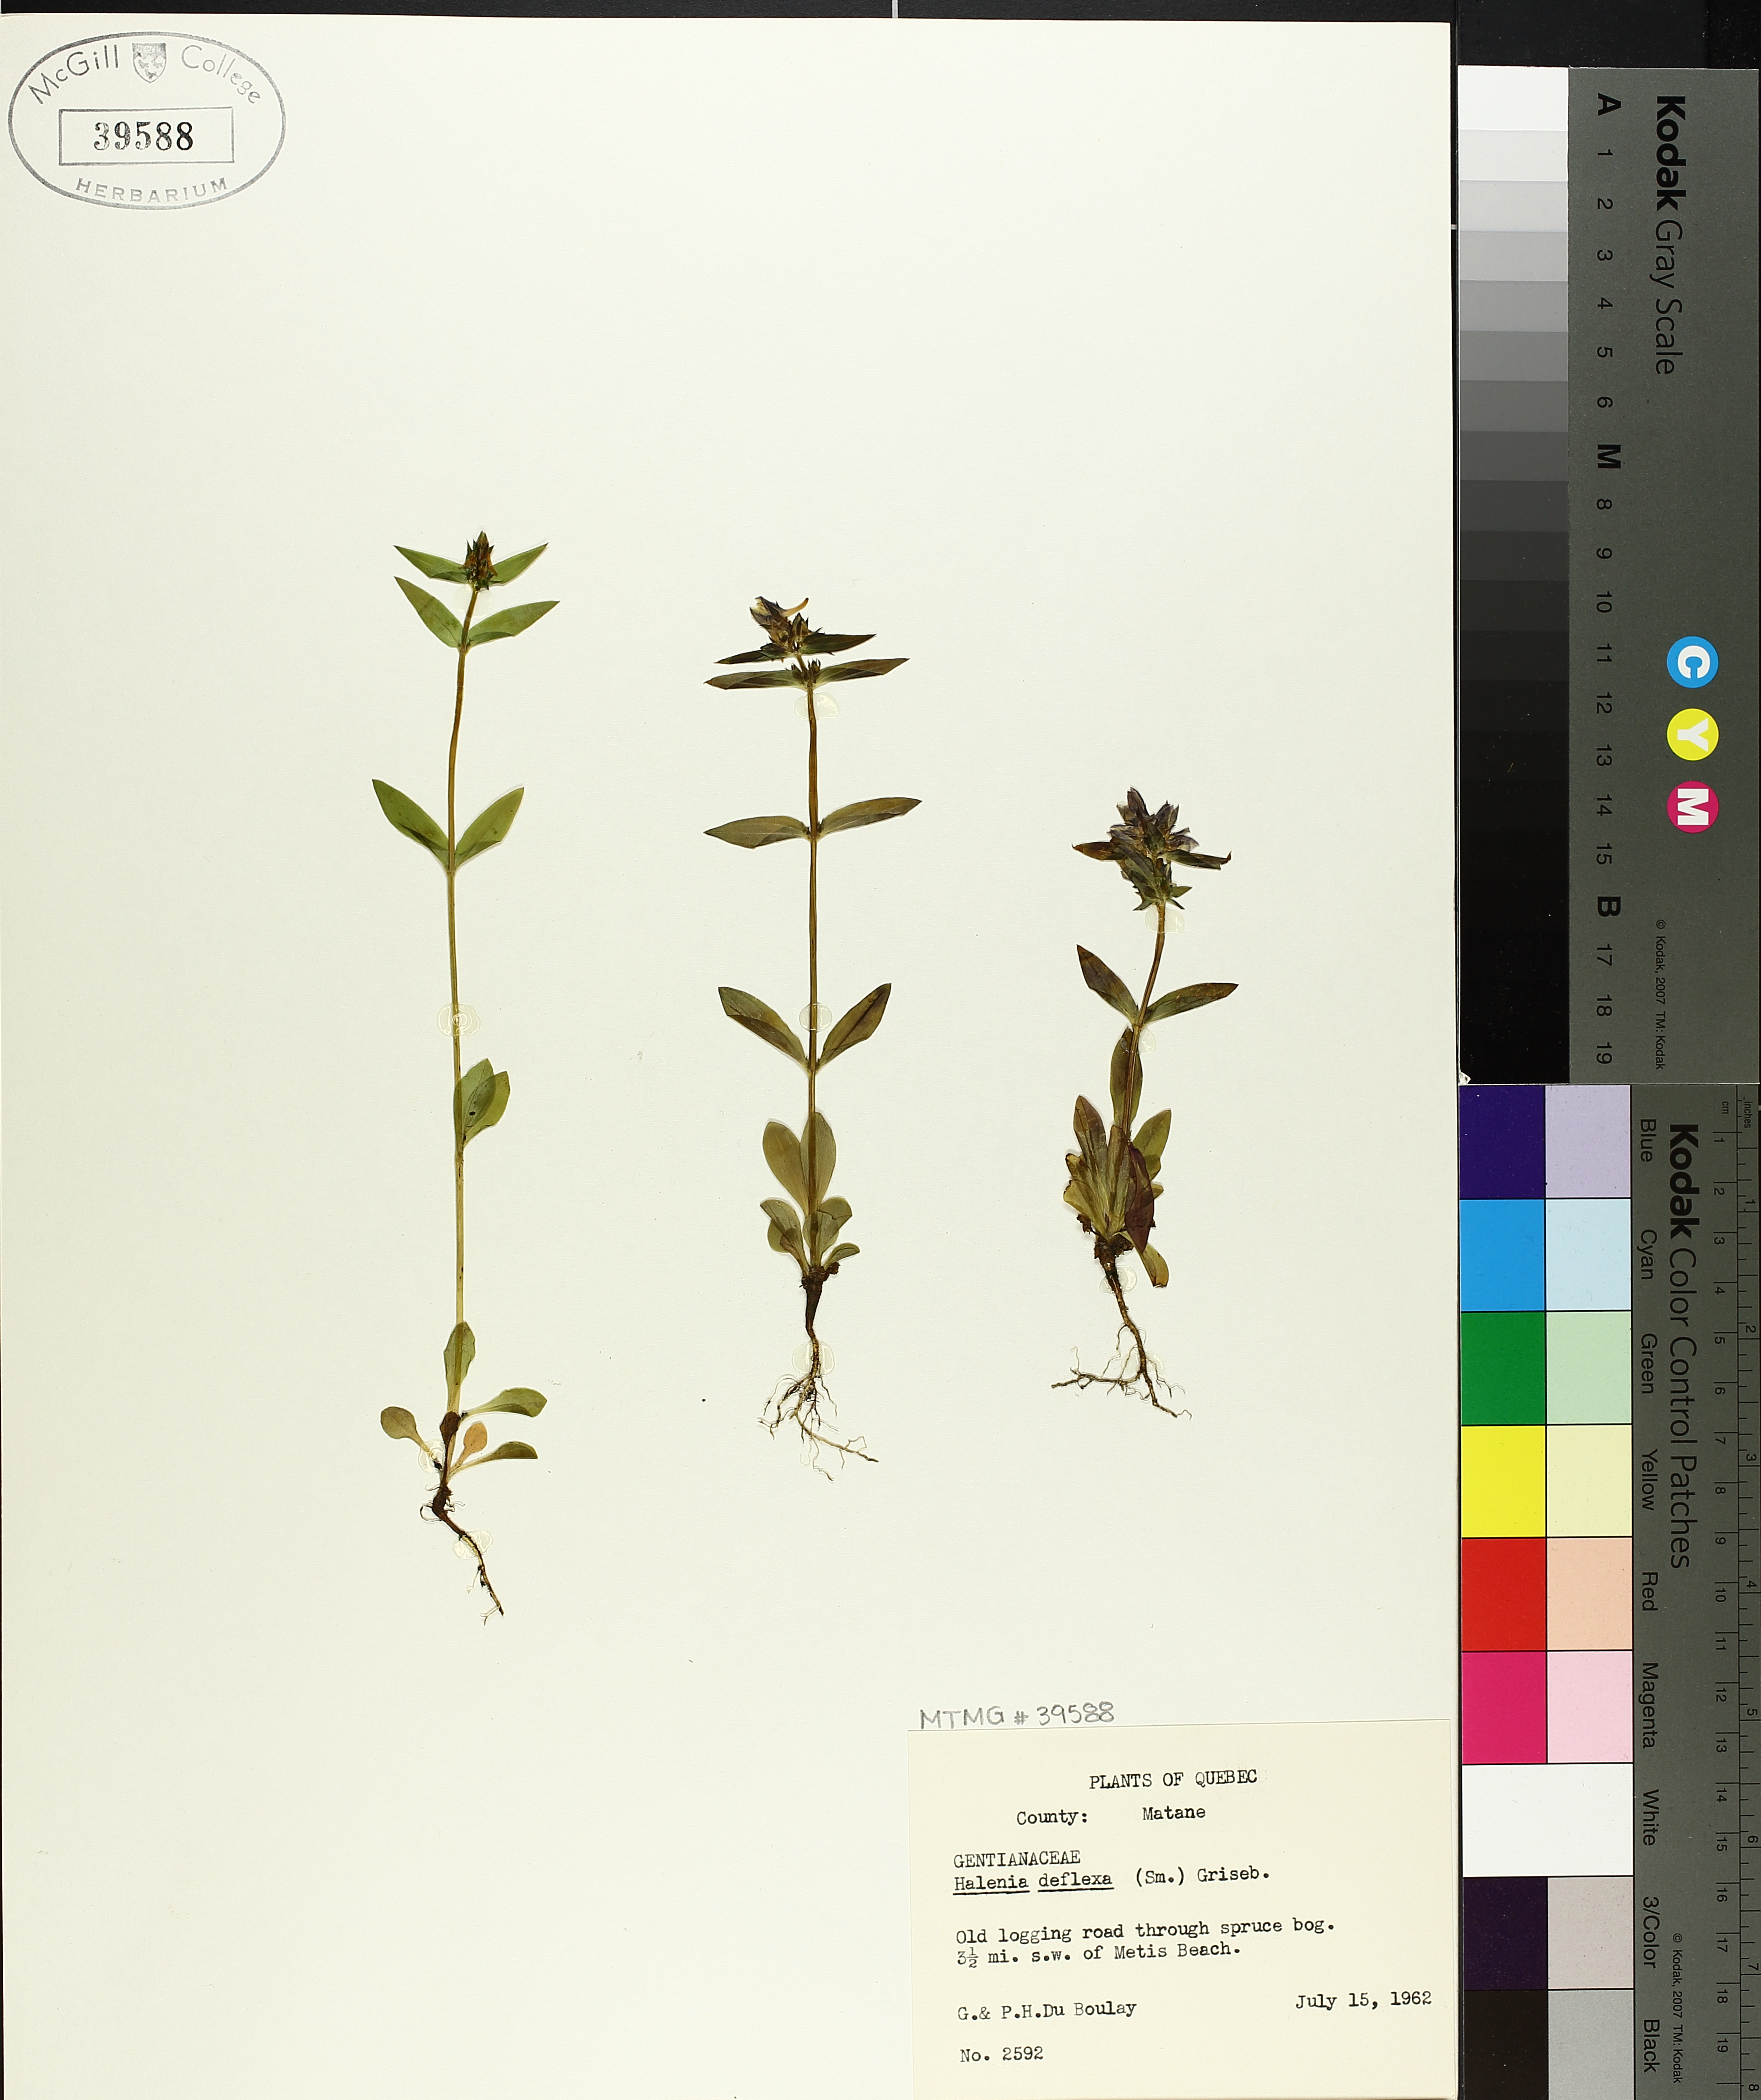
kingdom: Plantae
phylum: Tracheophyta
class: Magnoliopsida
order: Gentianales
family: Gentianaceae
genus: Halenia
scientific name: Halenia deflexa
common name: American spurred gentian
